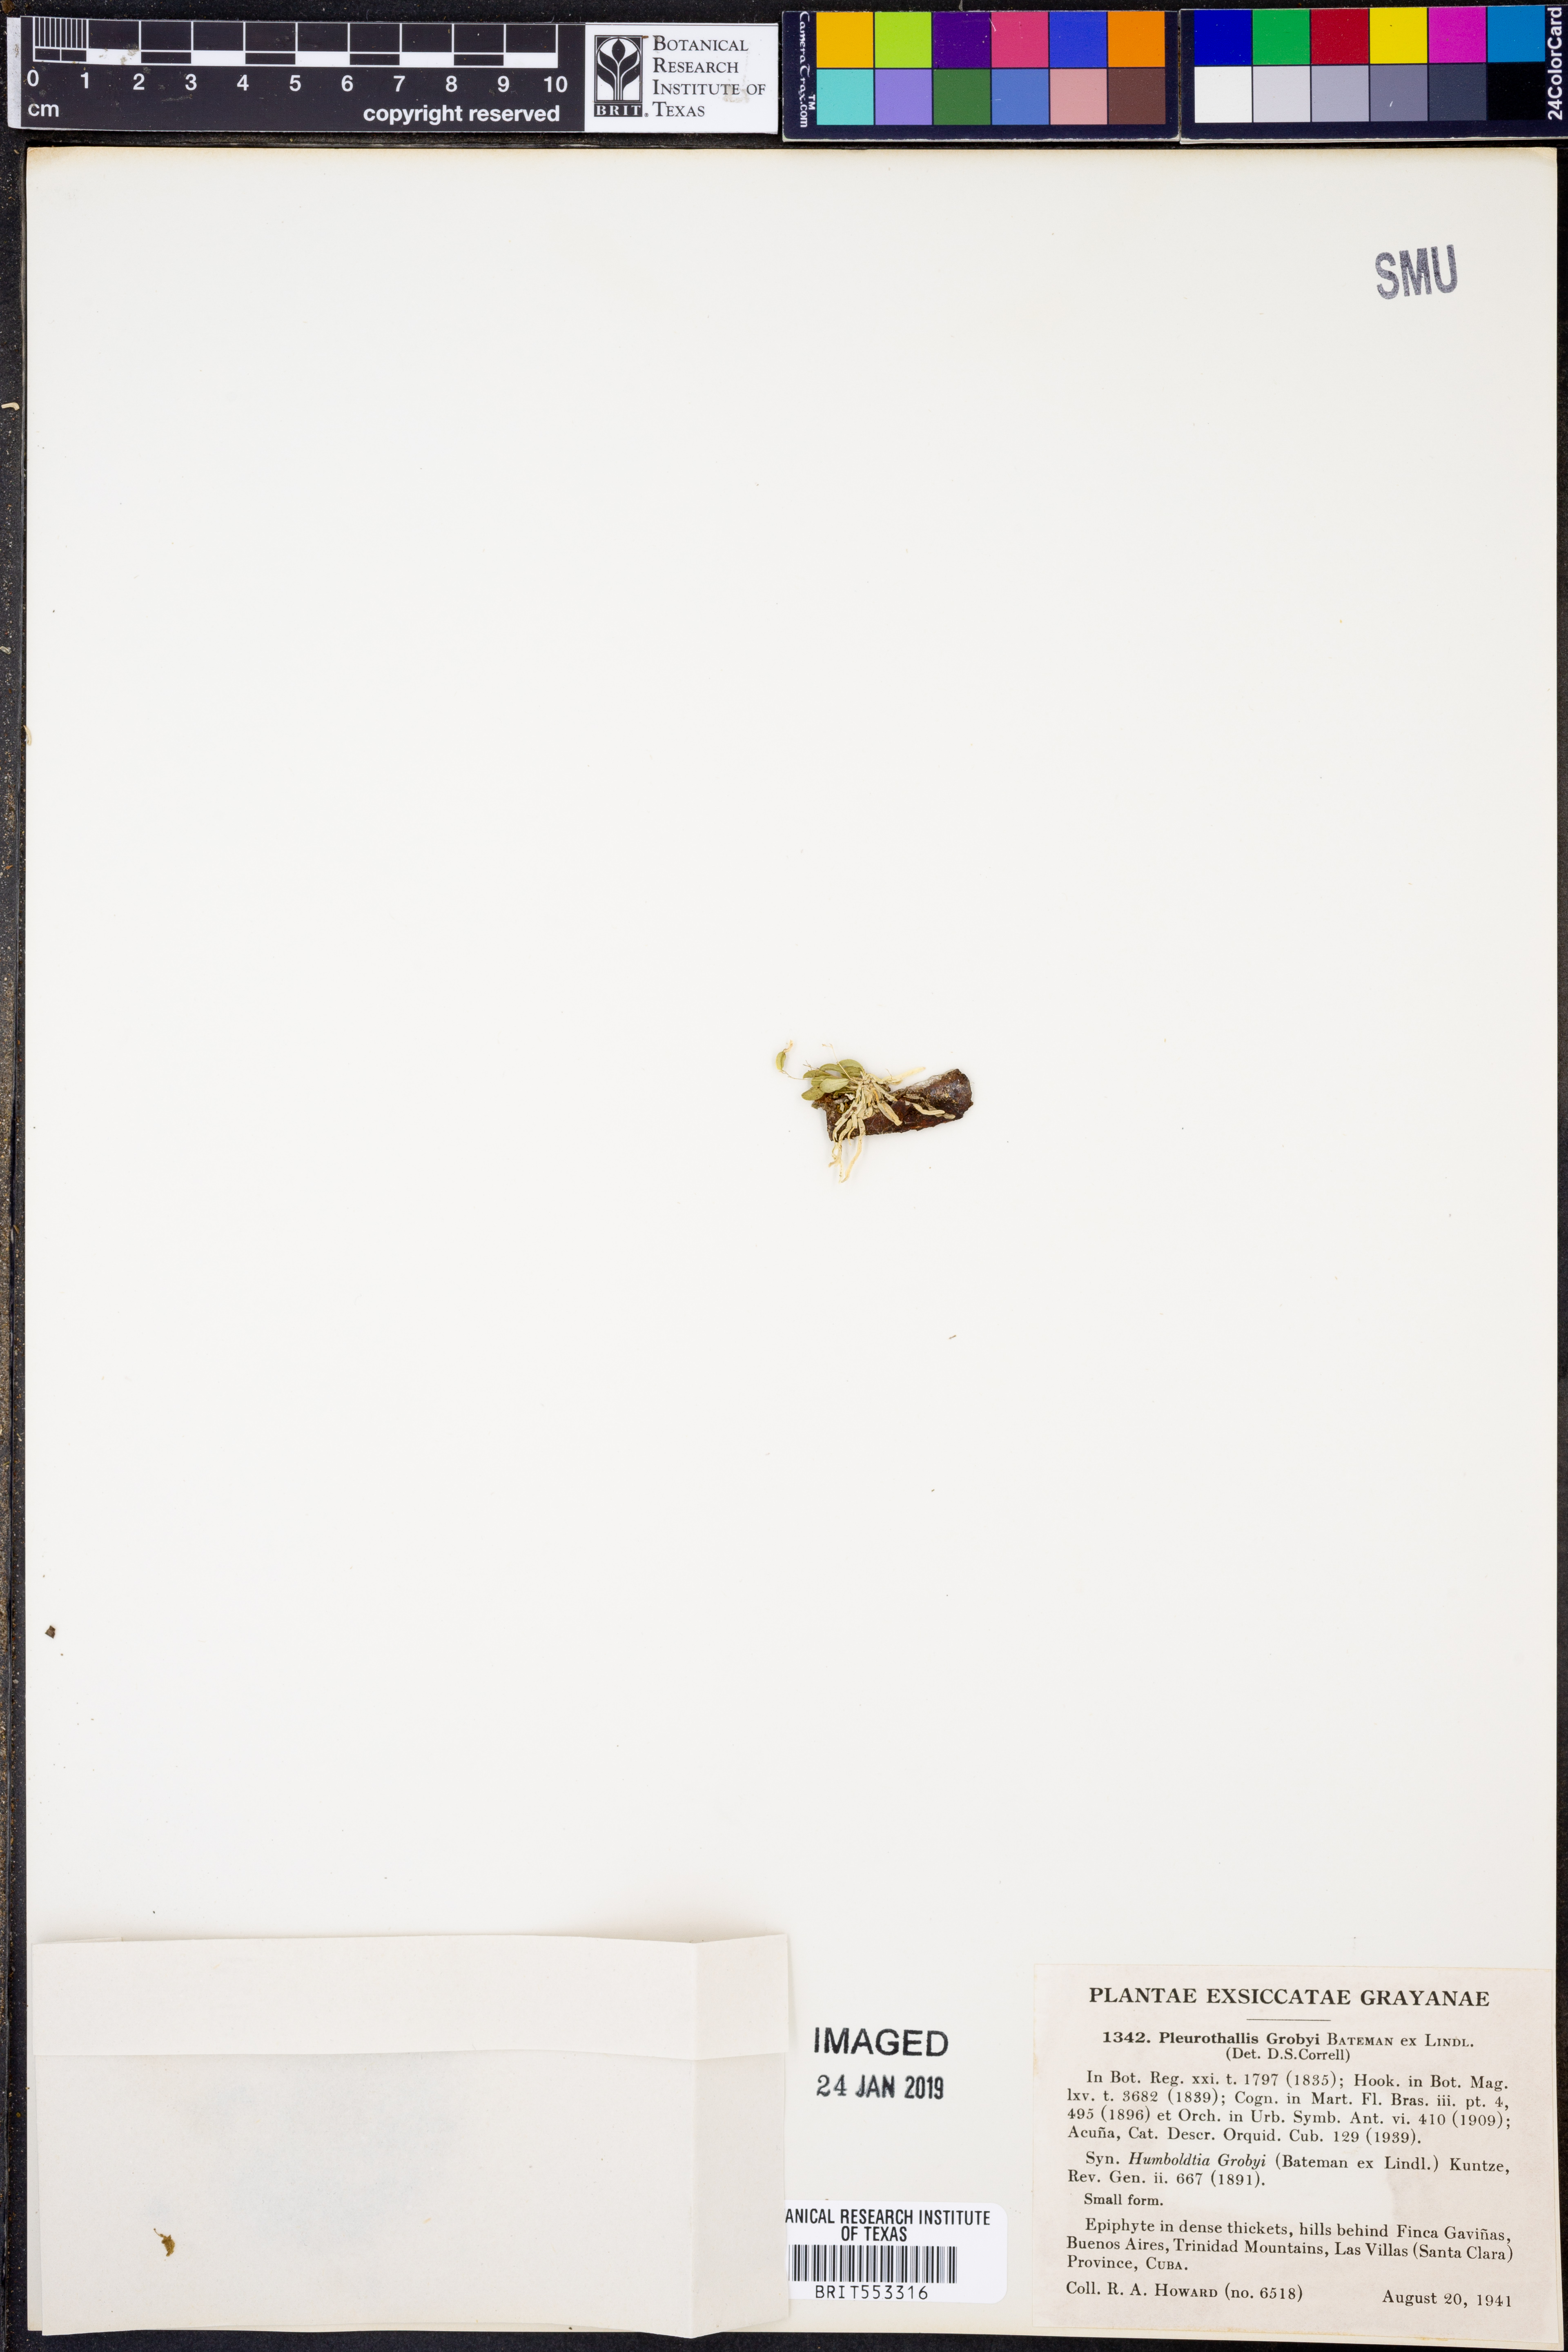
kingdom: Plantae
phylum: Tracheophyta
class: Liliopsida
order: Asparagales
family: Orchidaceae
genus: Specklinia
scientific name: Specklinia grobyi
